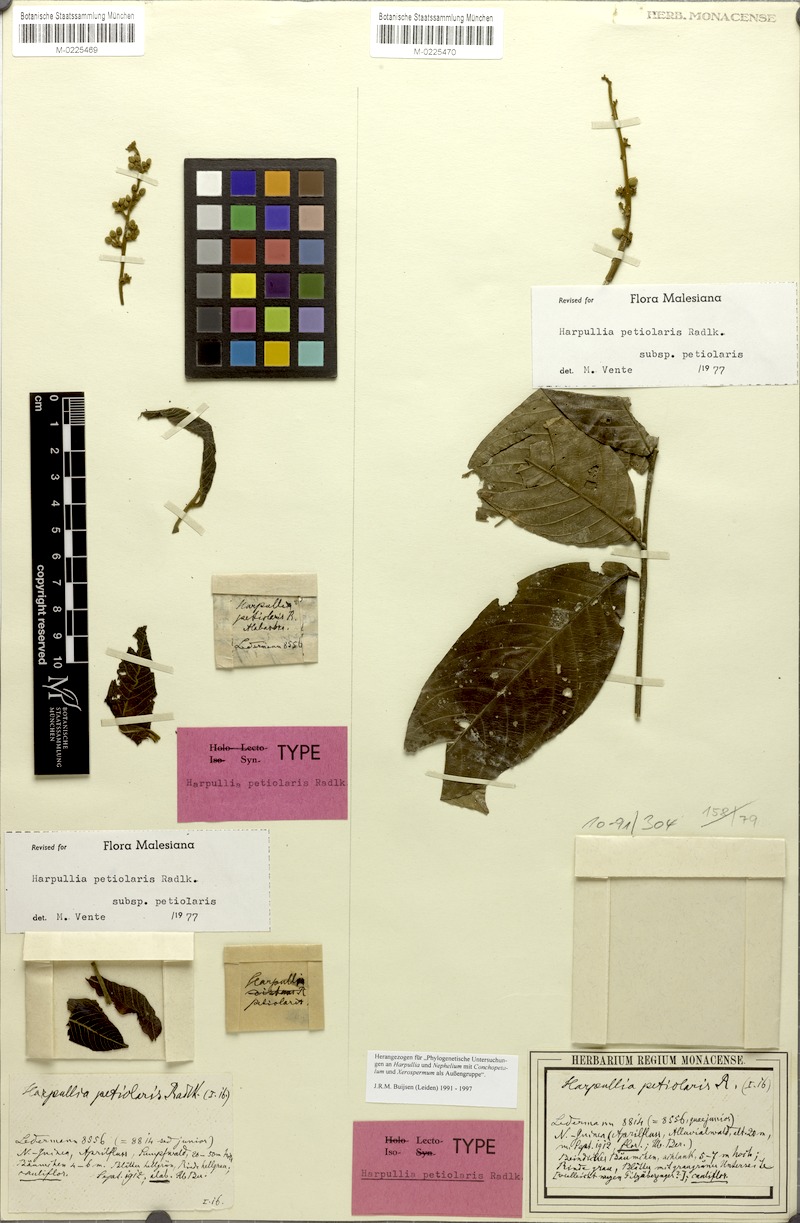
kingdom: Plantae
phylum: Tracheophyta
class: Magnoliopsida
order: Sapindales
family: Sapindaceae
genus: Harpullia
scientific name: Harpullia petiolaris
